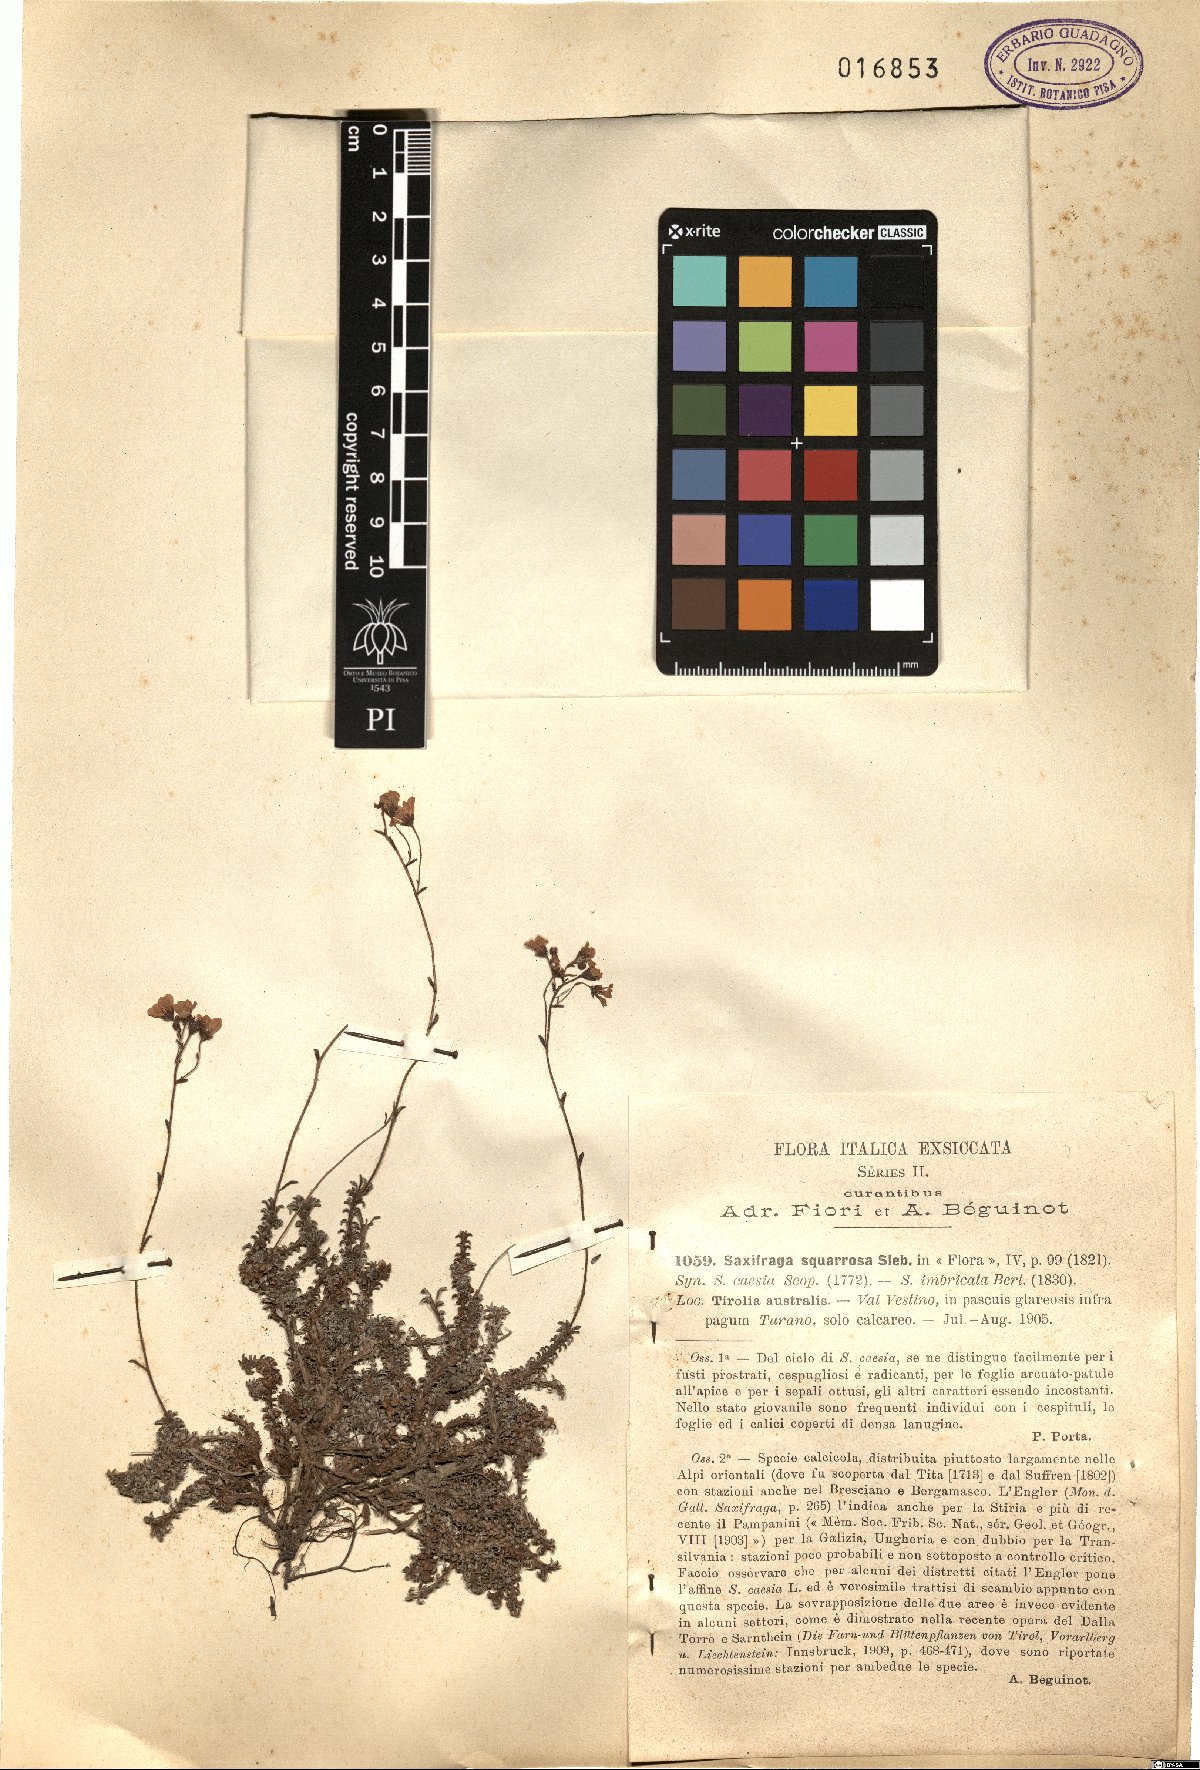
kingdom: Plantae
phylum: Tracheophyta
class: Magnoliopsida
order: Saxifragales
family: Saxifragaceae
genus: Saxifraga
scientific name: Saxifraga squarrosa
